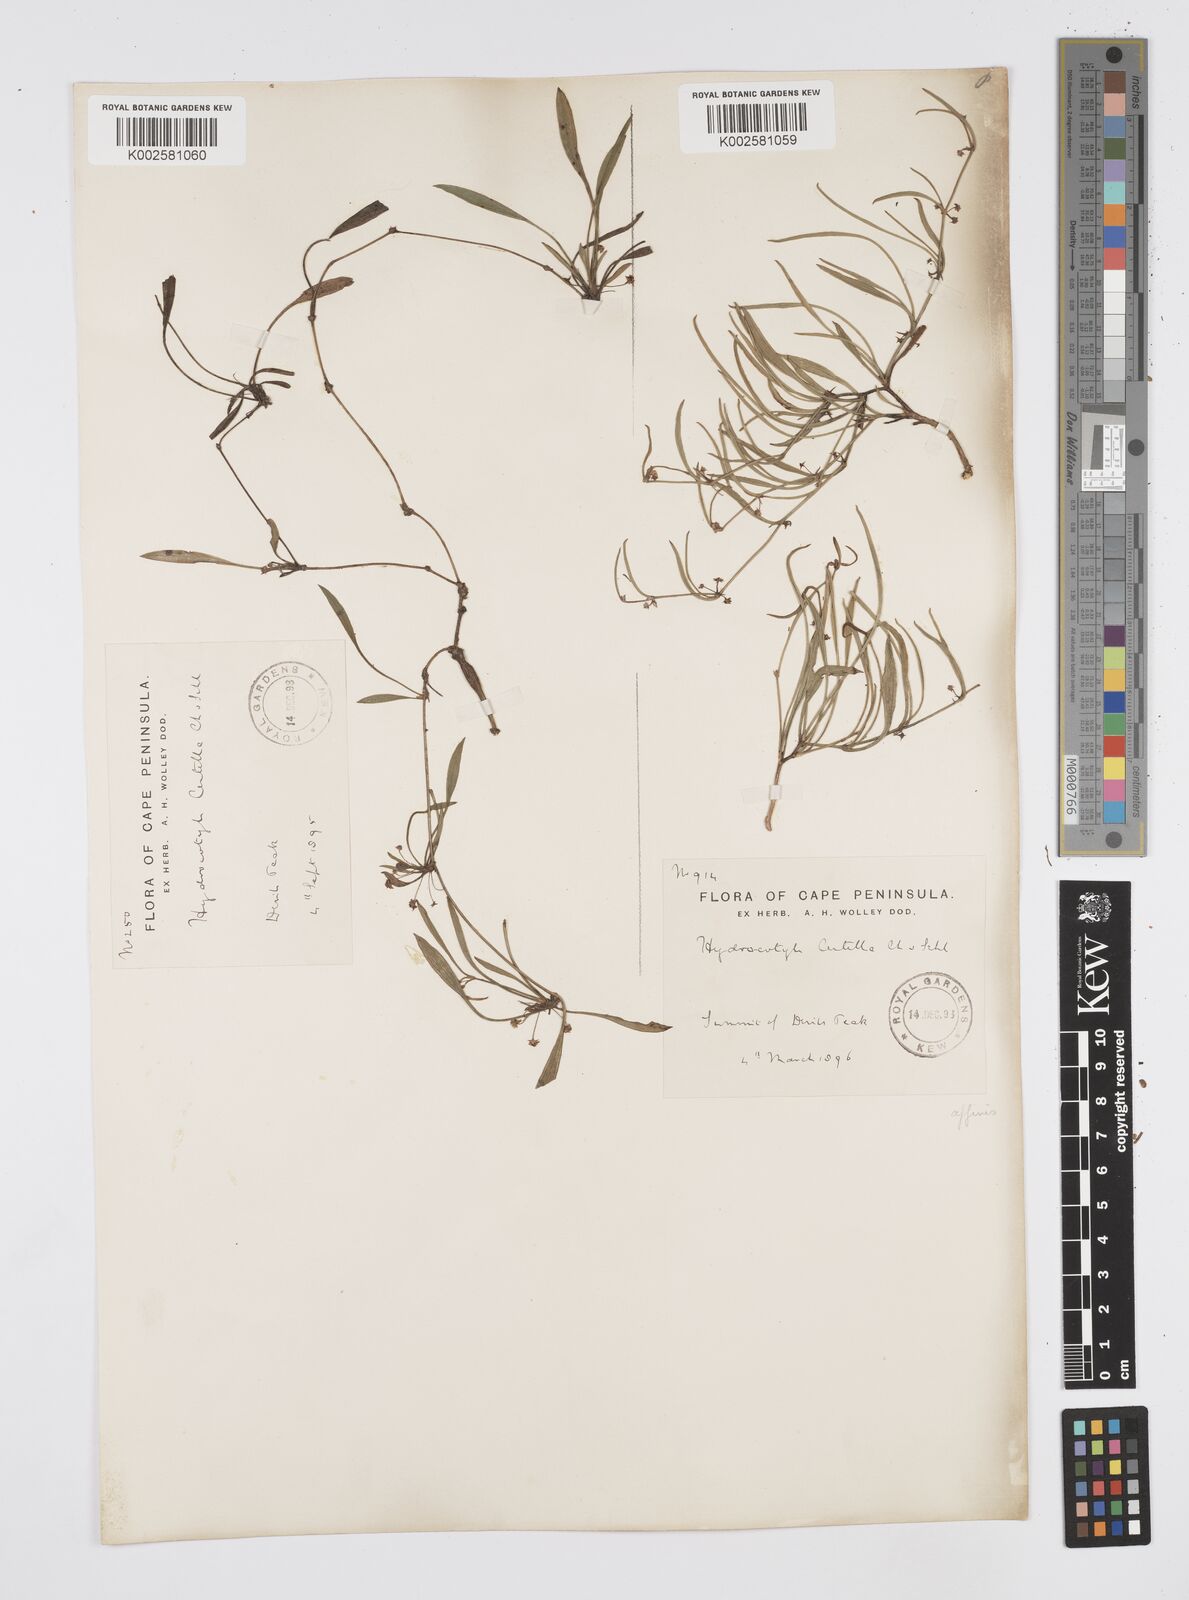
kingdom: Plantae
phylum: Tracheophyta
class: Magnoliopsida
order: Apiales
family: Apiaceae
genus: Centella
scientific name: Centella glabrata
